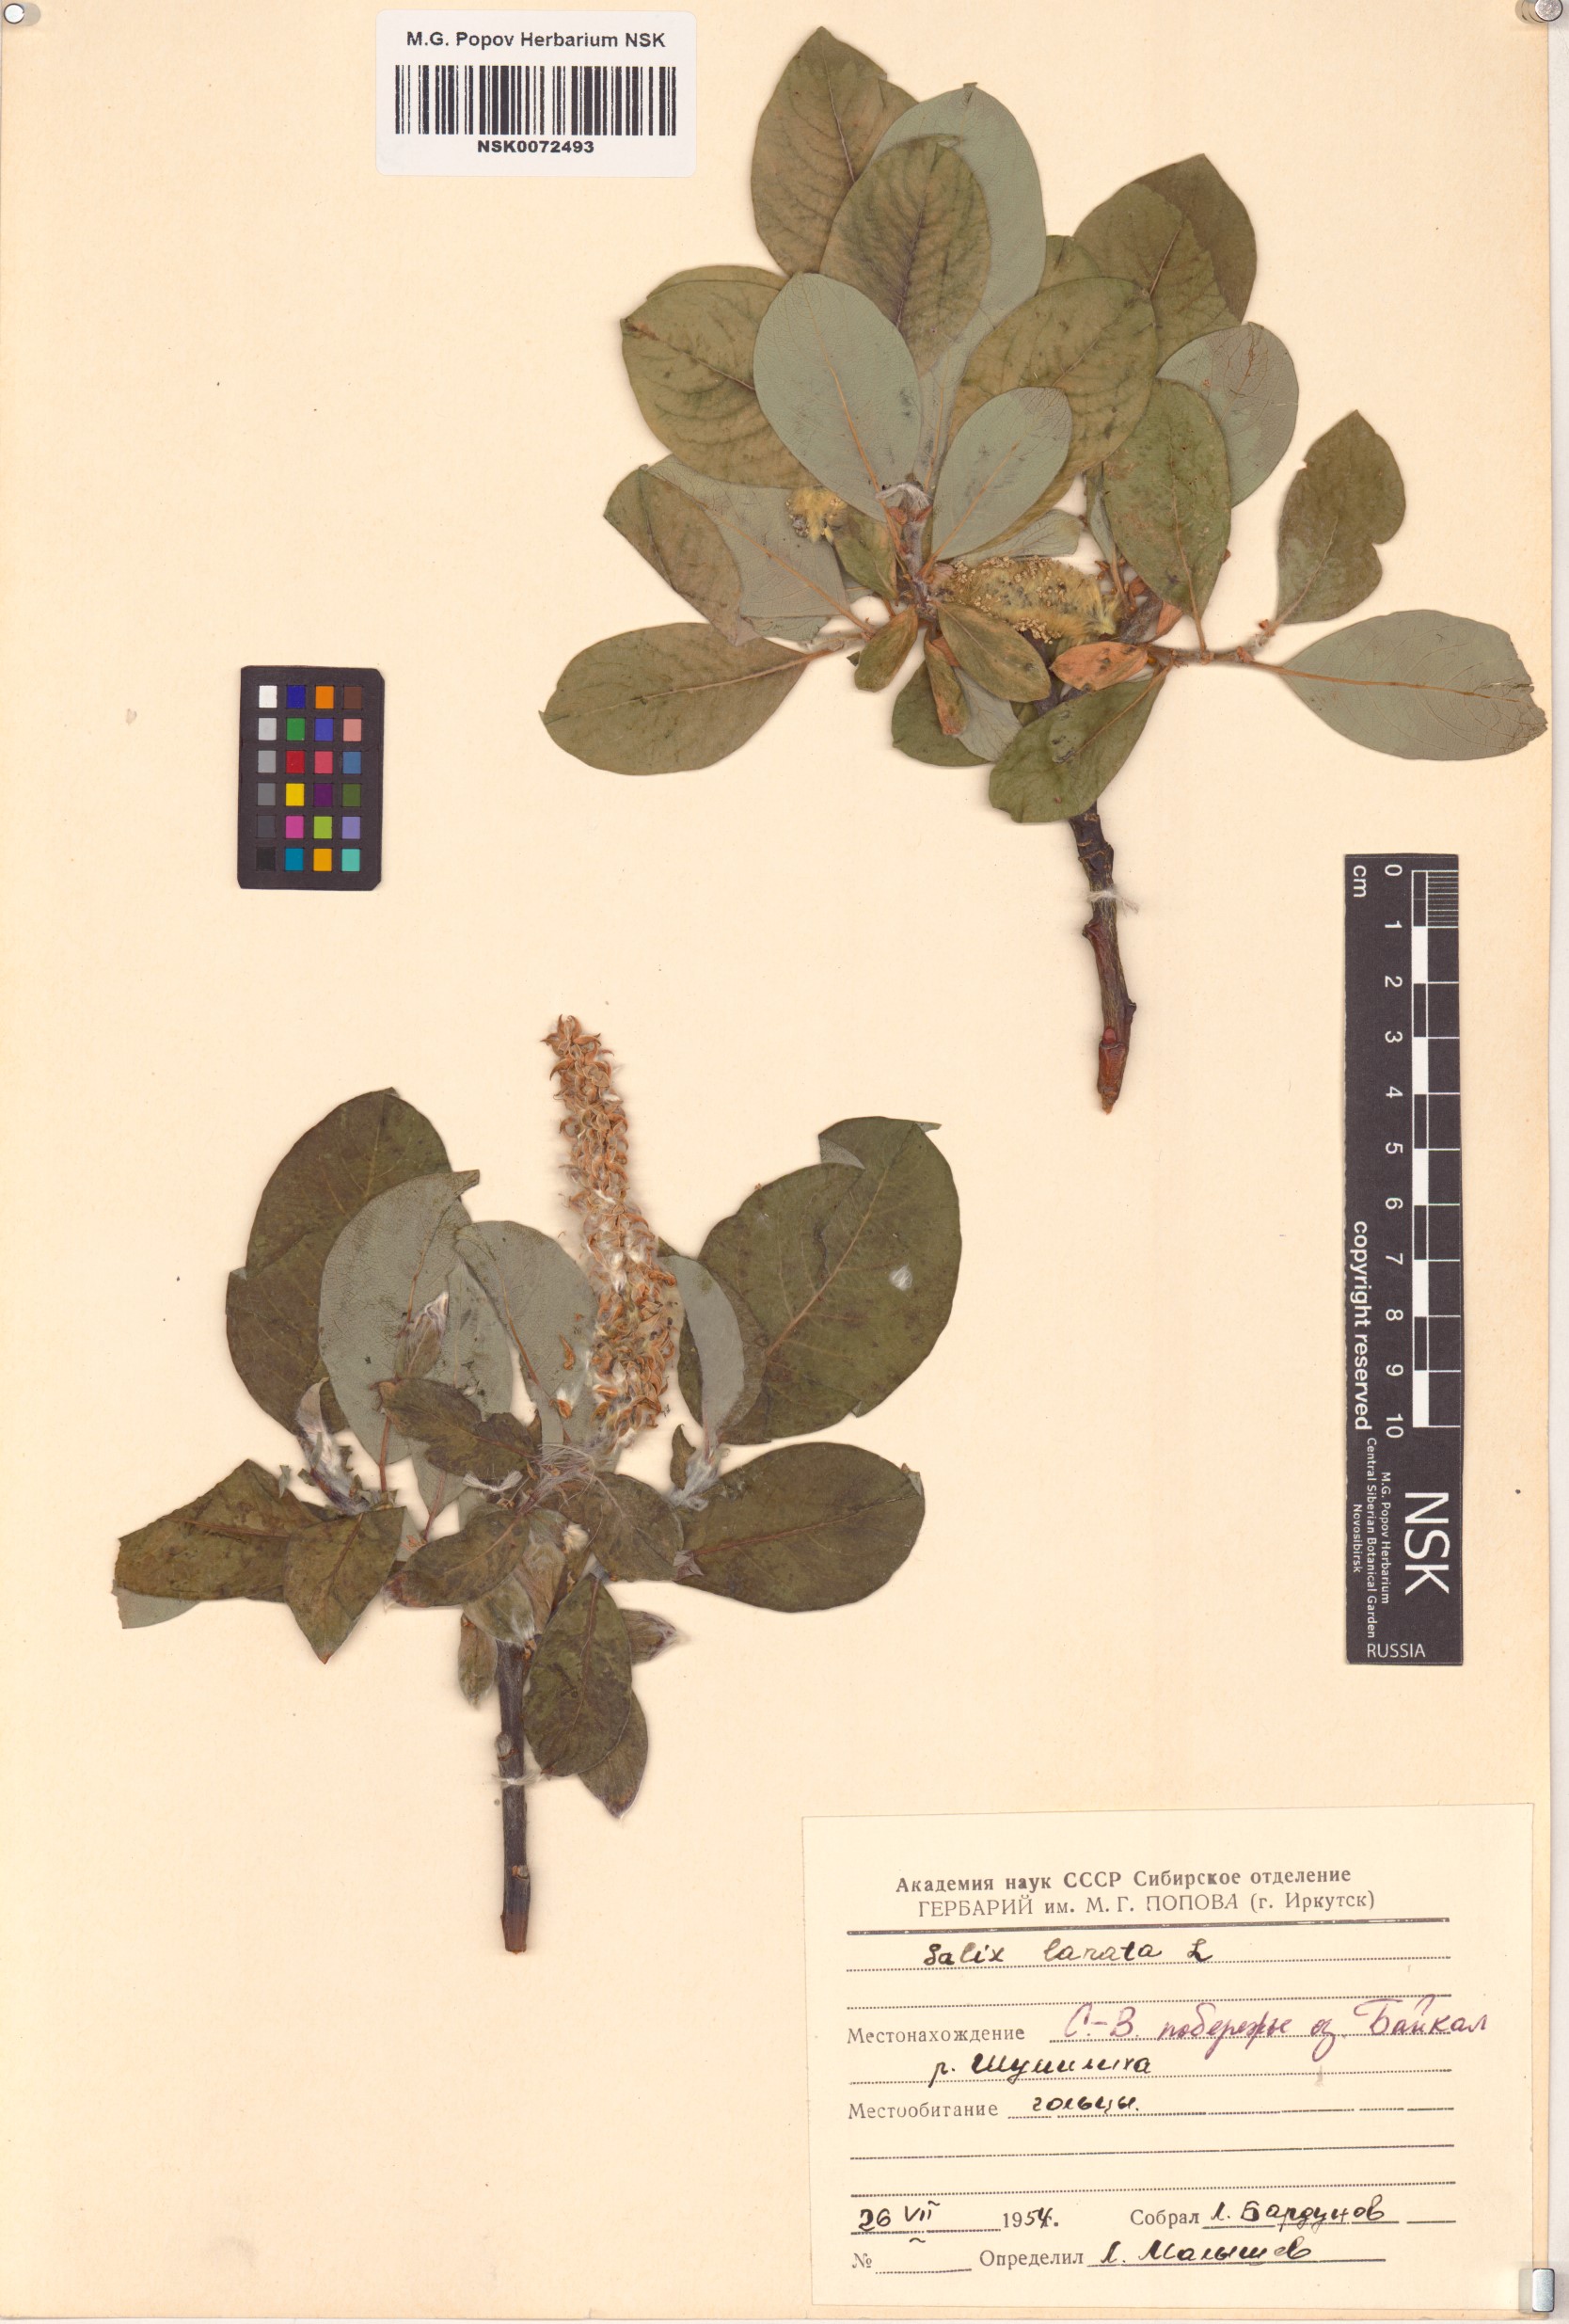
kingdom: Plantae
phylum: Tracheophyta
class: Magnoliopsida
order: Malpighiales
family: Salicaceae
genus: Salix
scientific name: Salix lanata
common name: Woolly willow
